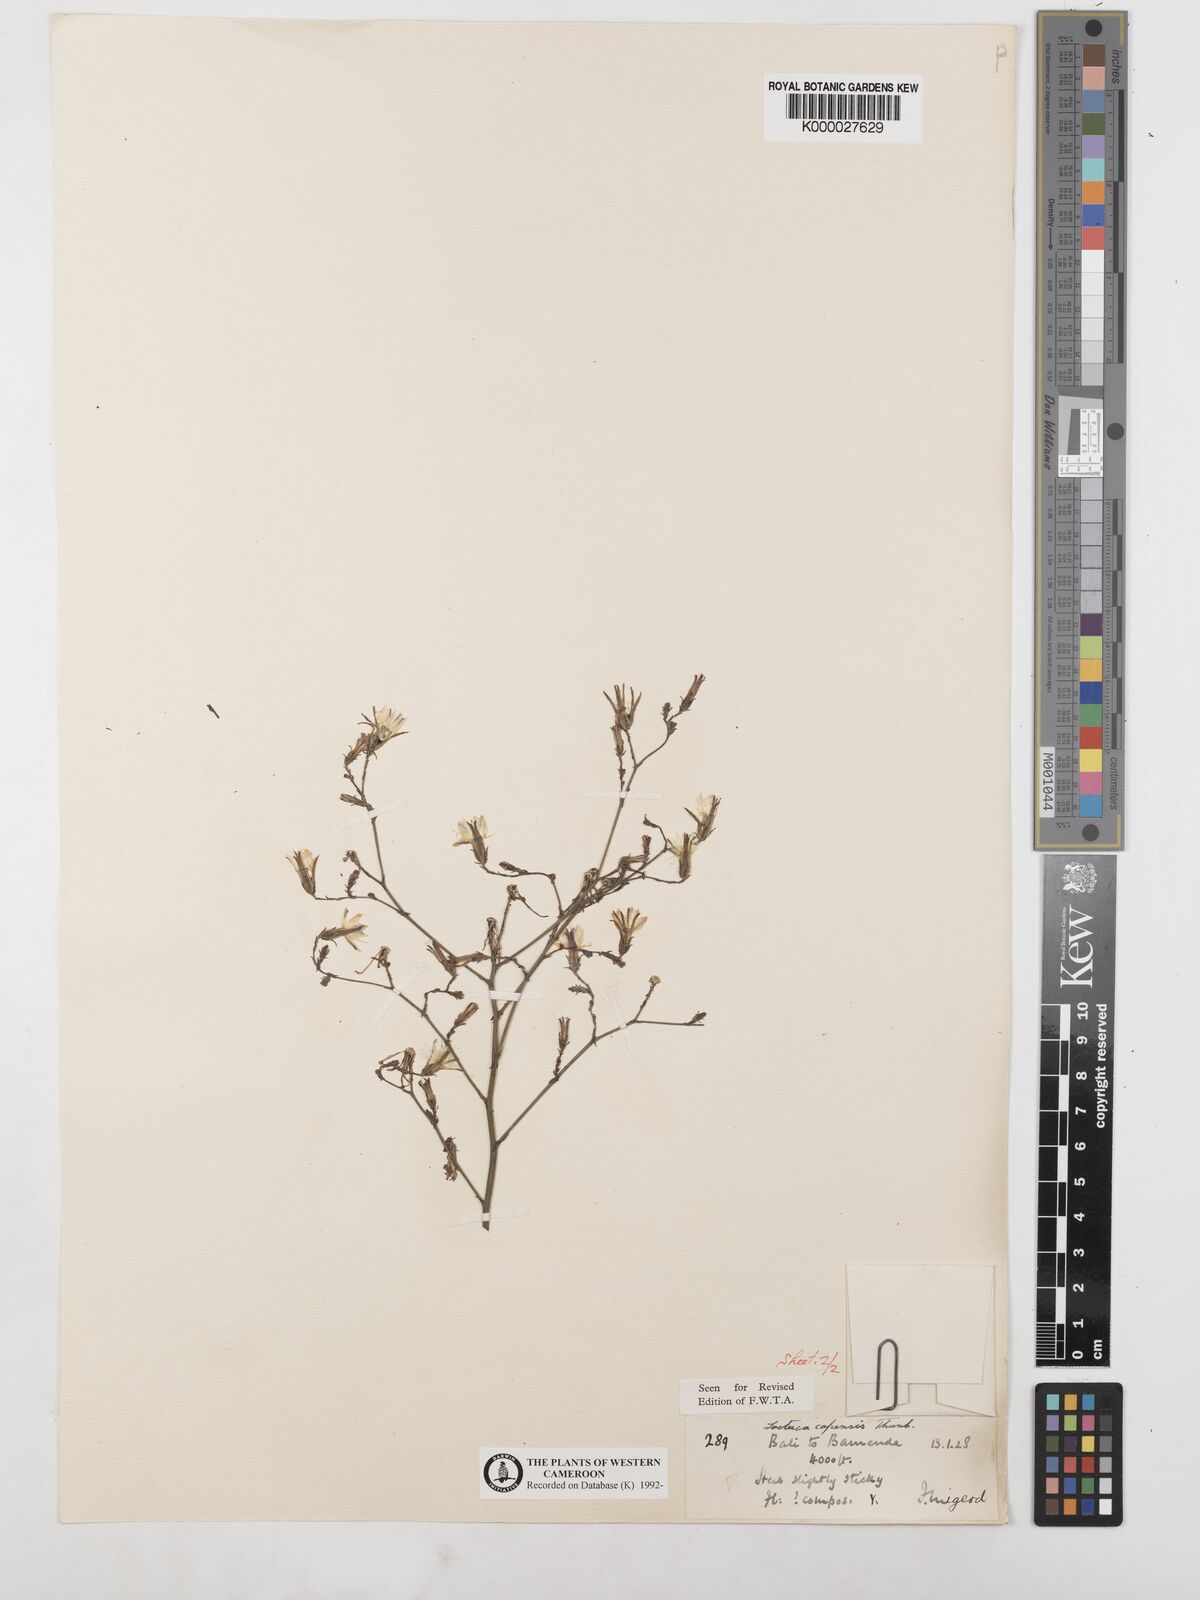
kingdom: Plantae
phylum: Tracheophyta
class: Magnoliopsida
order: Asterales
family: Asteraceae
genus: Lactuca
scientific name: Lactuca inermis
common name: Wild lettuce
